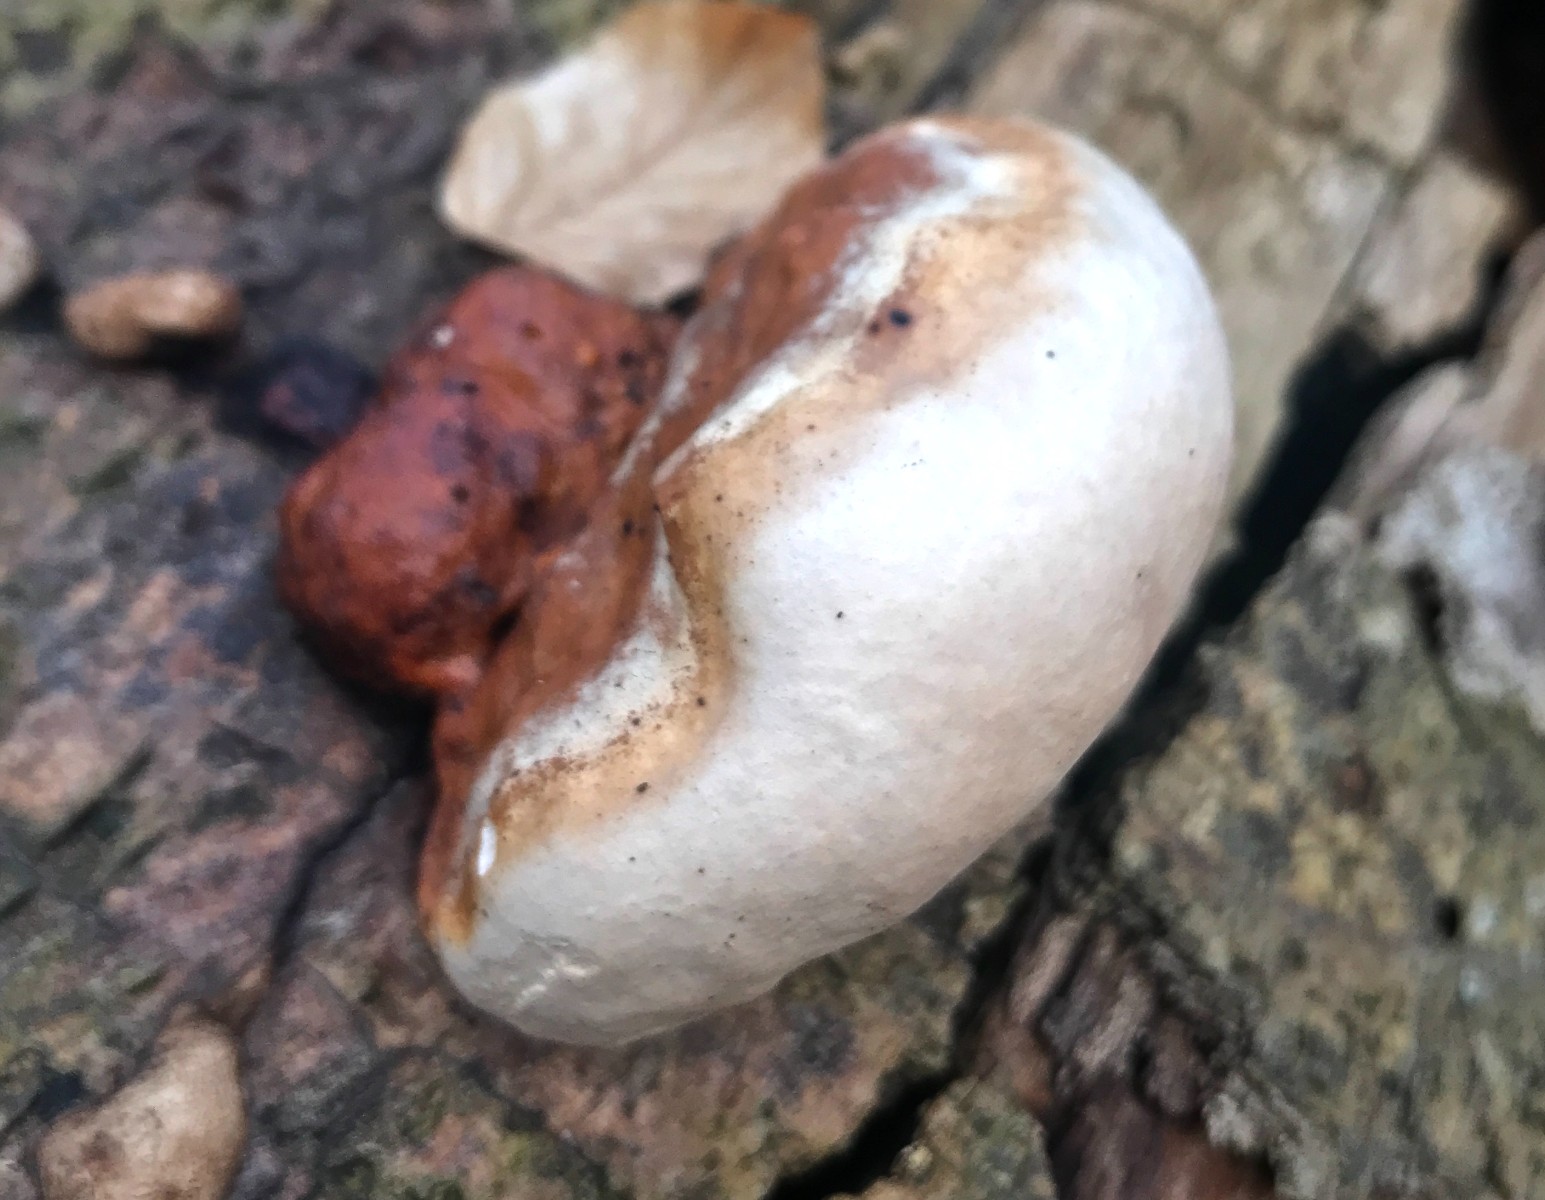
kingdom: Fungi
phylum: Basidiomycota
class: Agaricomycetes
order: Polyporales
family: Fomitopsidaceae
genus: Fomitopsis
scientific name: Fomitopsis pinicola
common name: randbæltet hovporesvamp
